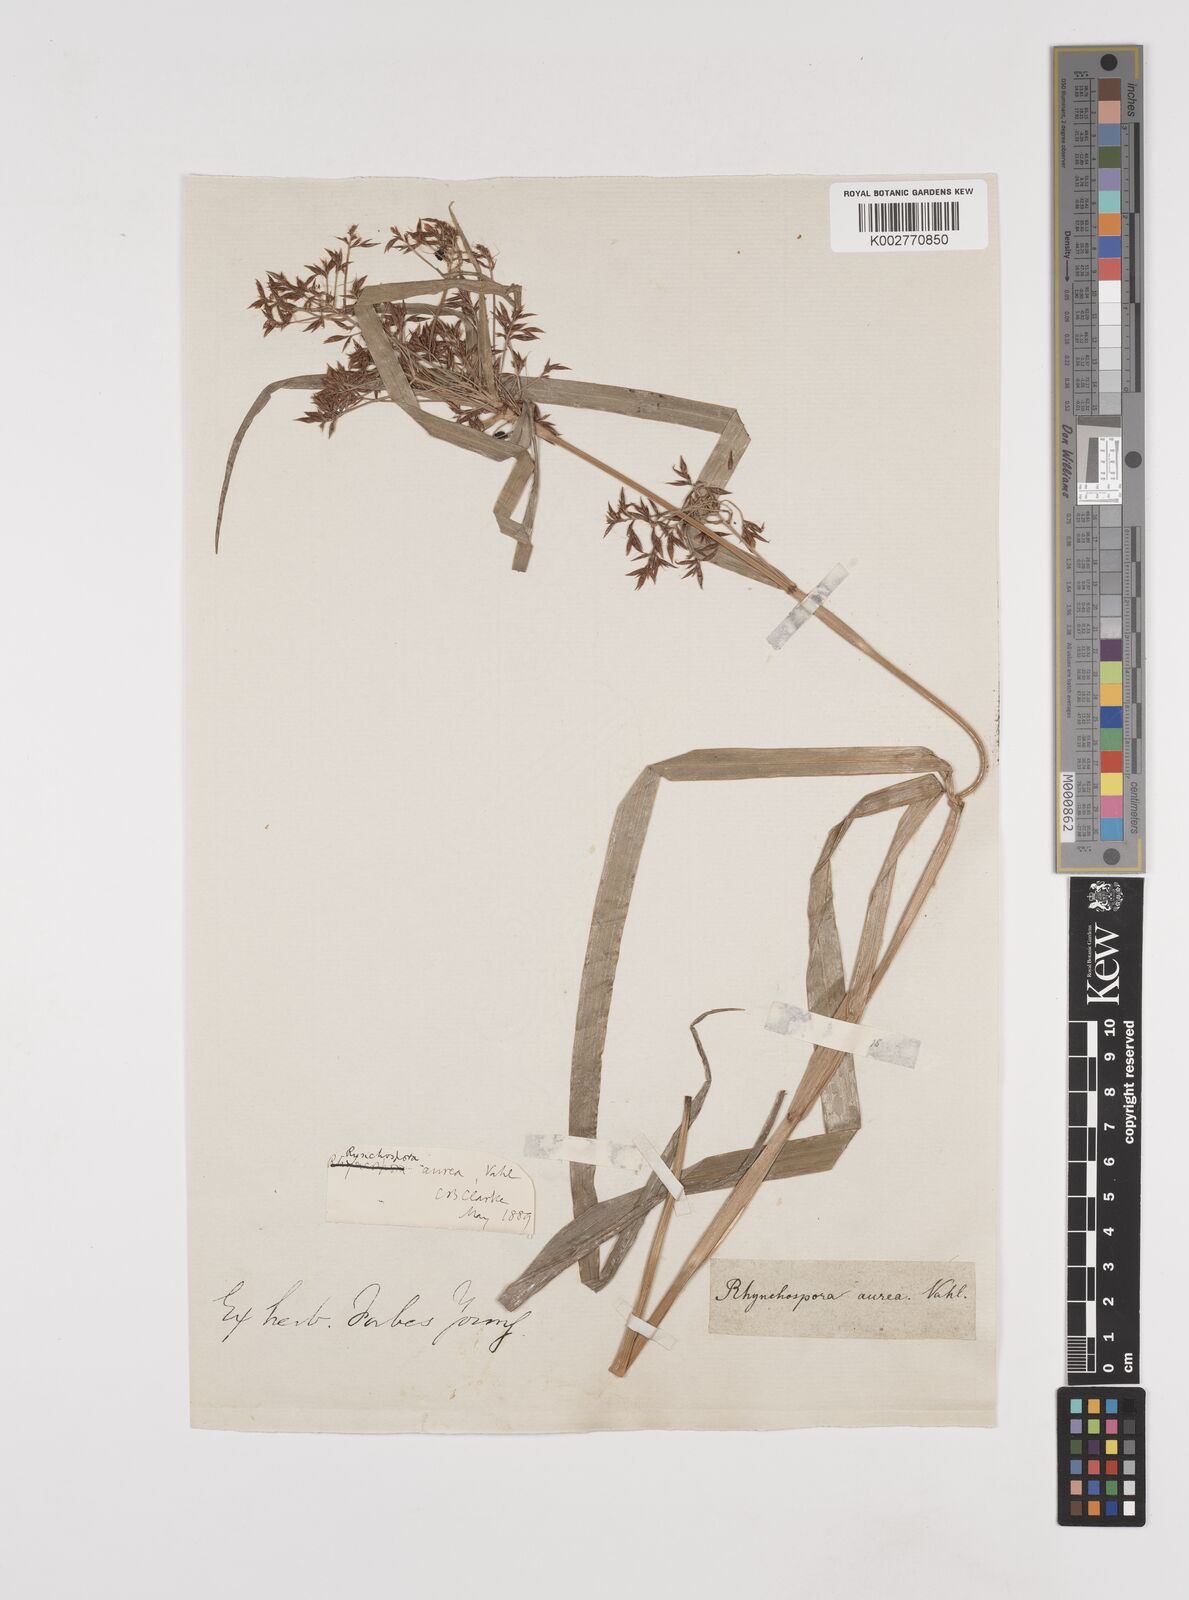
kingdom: Plantae
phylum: Tracheophyta
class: Liliopsida
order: Poales
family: Cyperaceae
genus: Rhynchospora
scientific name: Rhynchospora corymbosa
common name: Golden beak sedge
